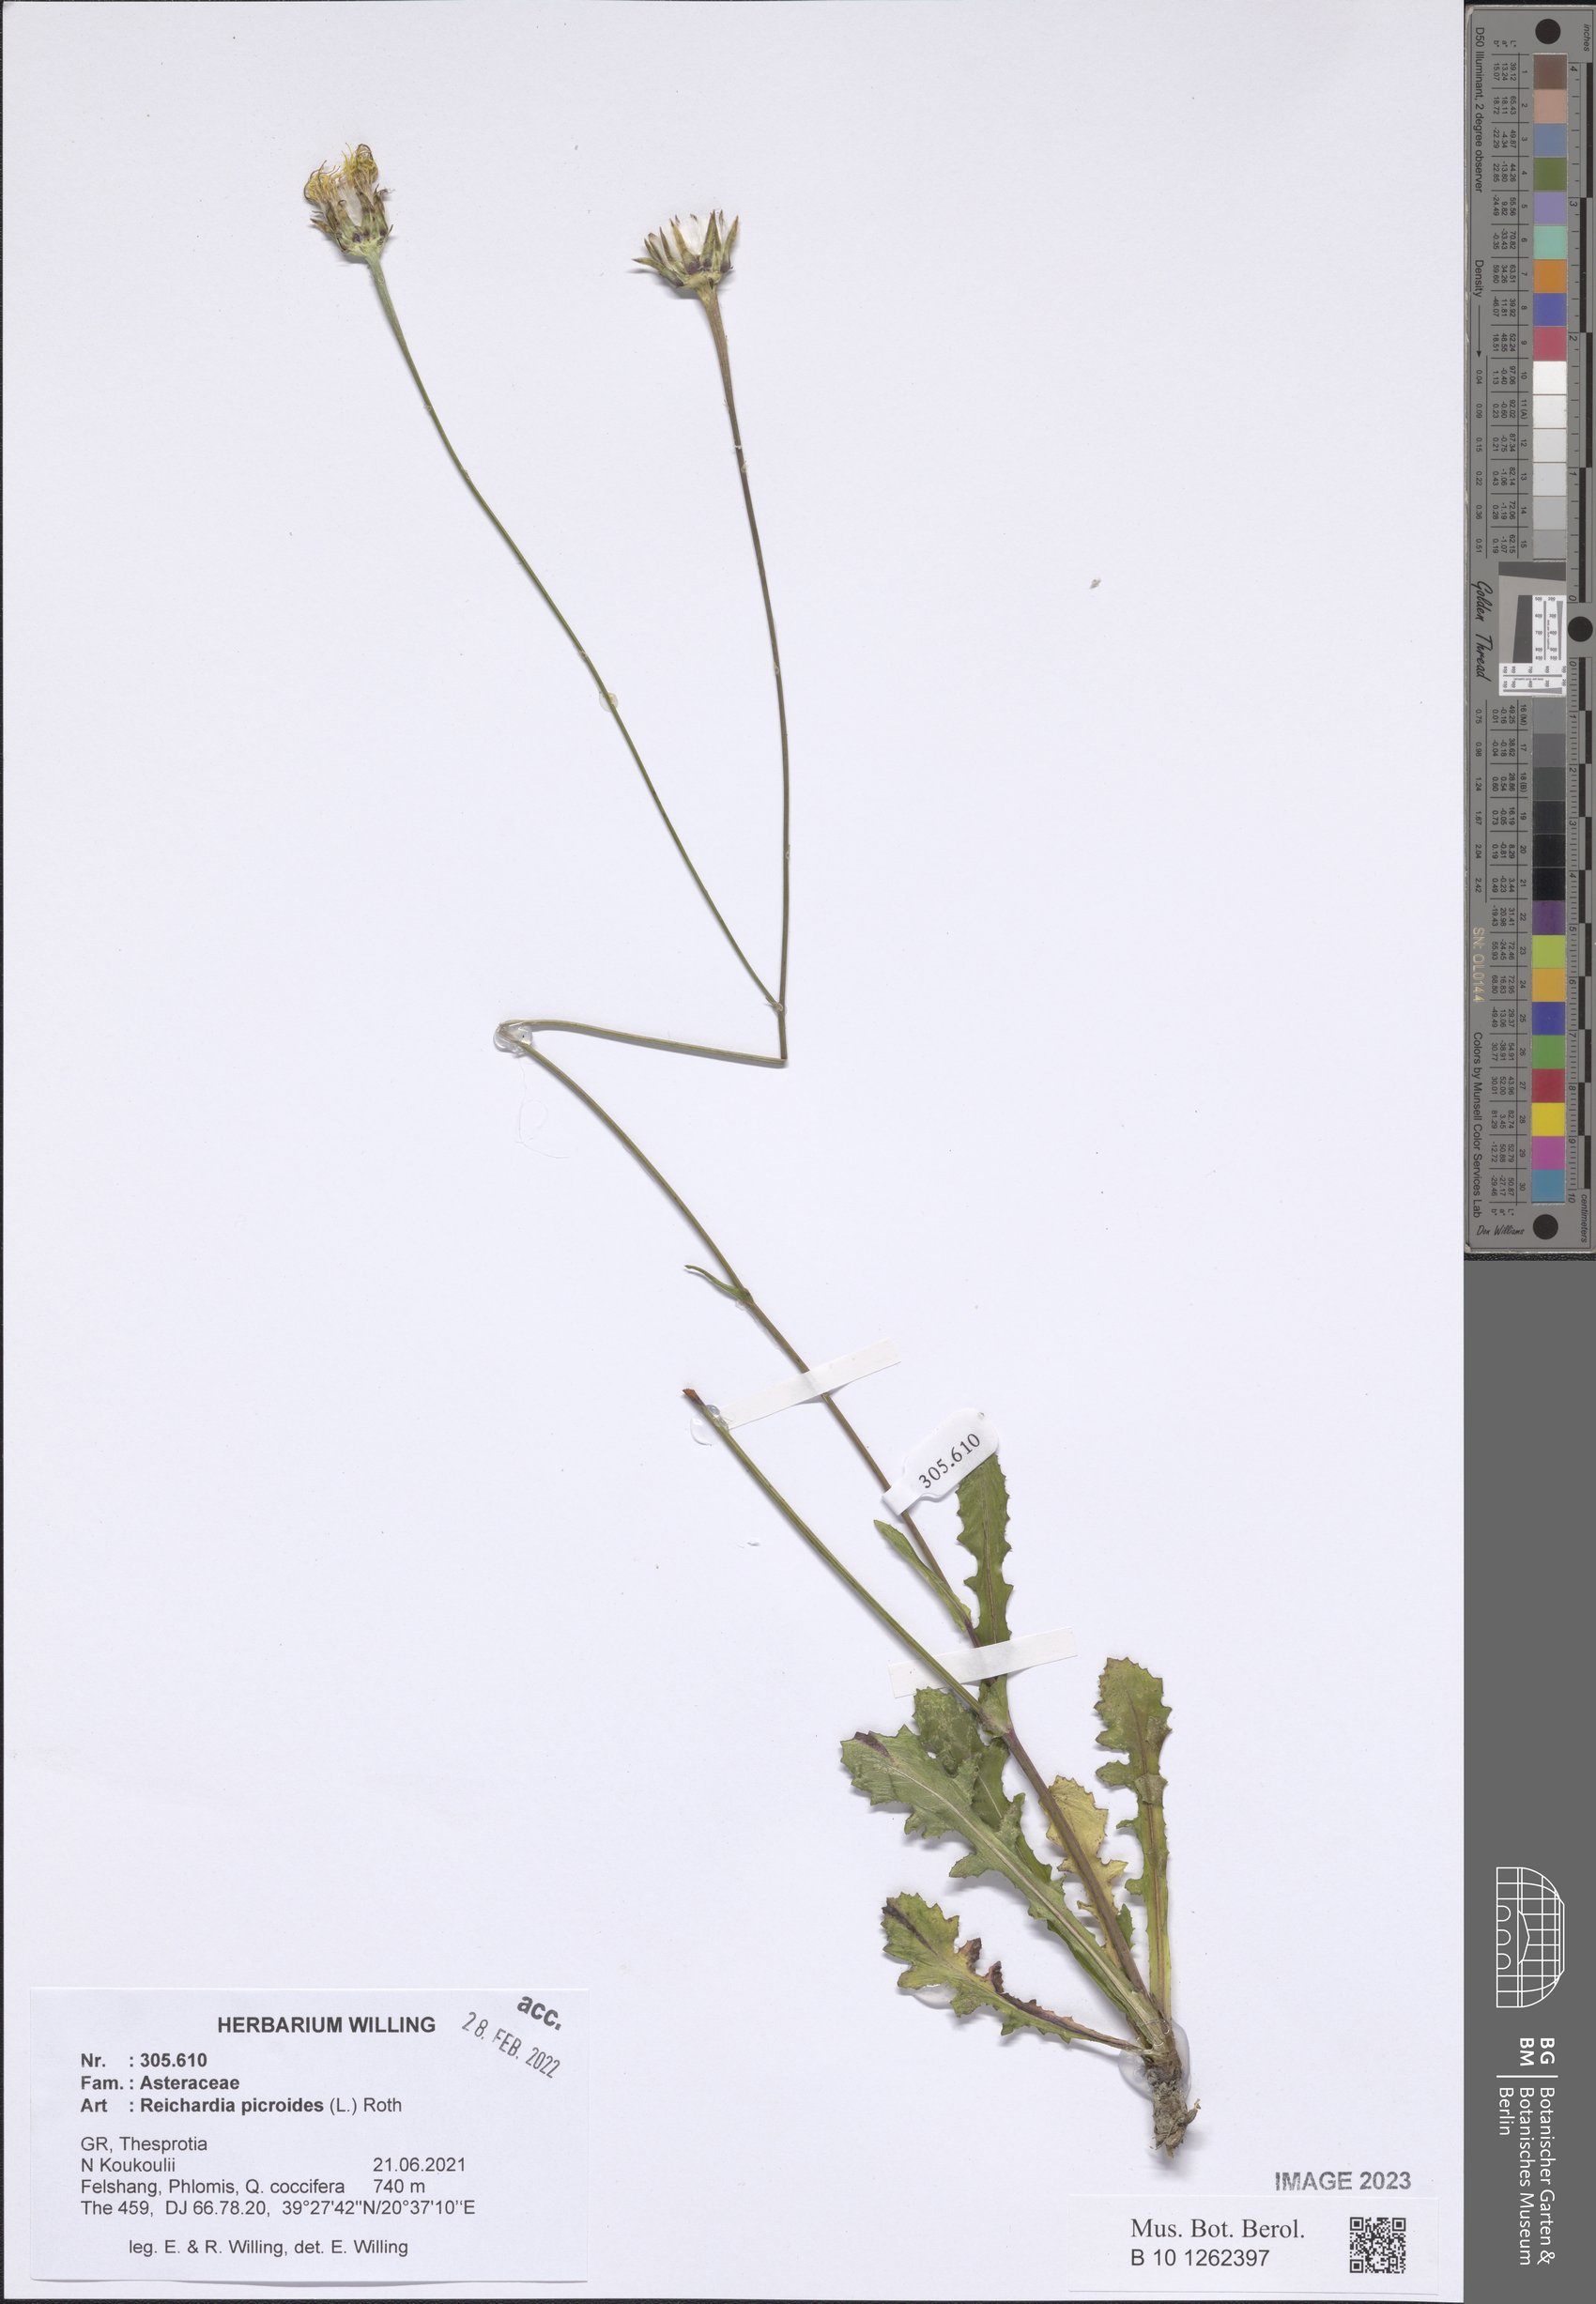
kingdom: Plantae
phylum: Tracheophyta
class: Magnoliopsida
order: Asterales
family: Asteraceae
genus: Reichardia
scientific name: Reichardia picroides
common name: Common brighteyes
